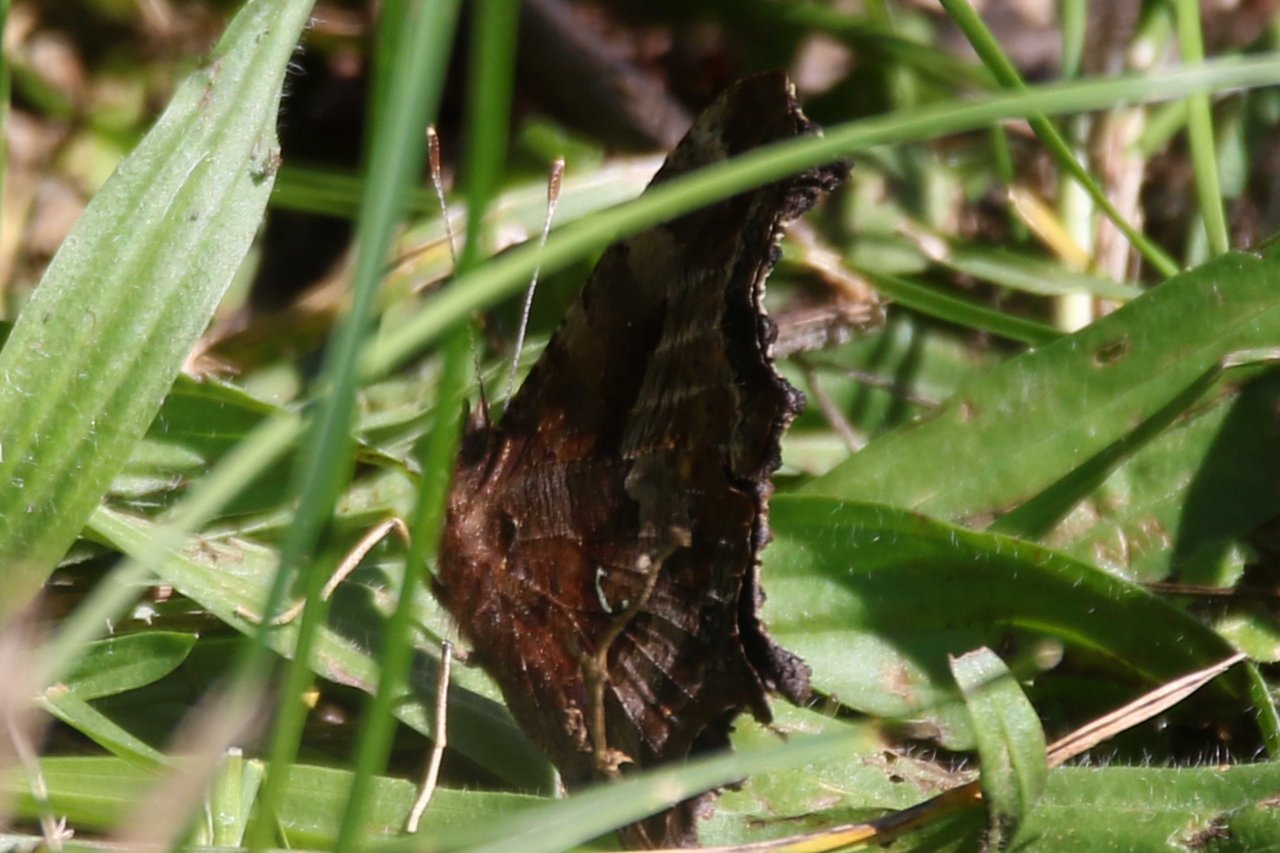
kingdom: Animalia
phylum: Arthropoda
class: Insecta
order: Lepidoptera
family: Nymphalidae
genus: Polygonia
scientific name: Polygonia comma
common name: Eastern Comma
